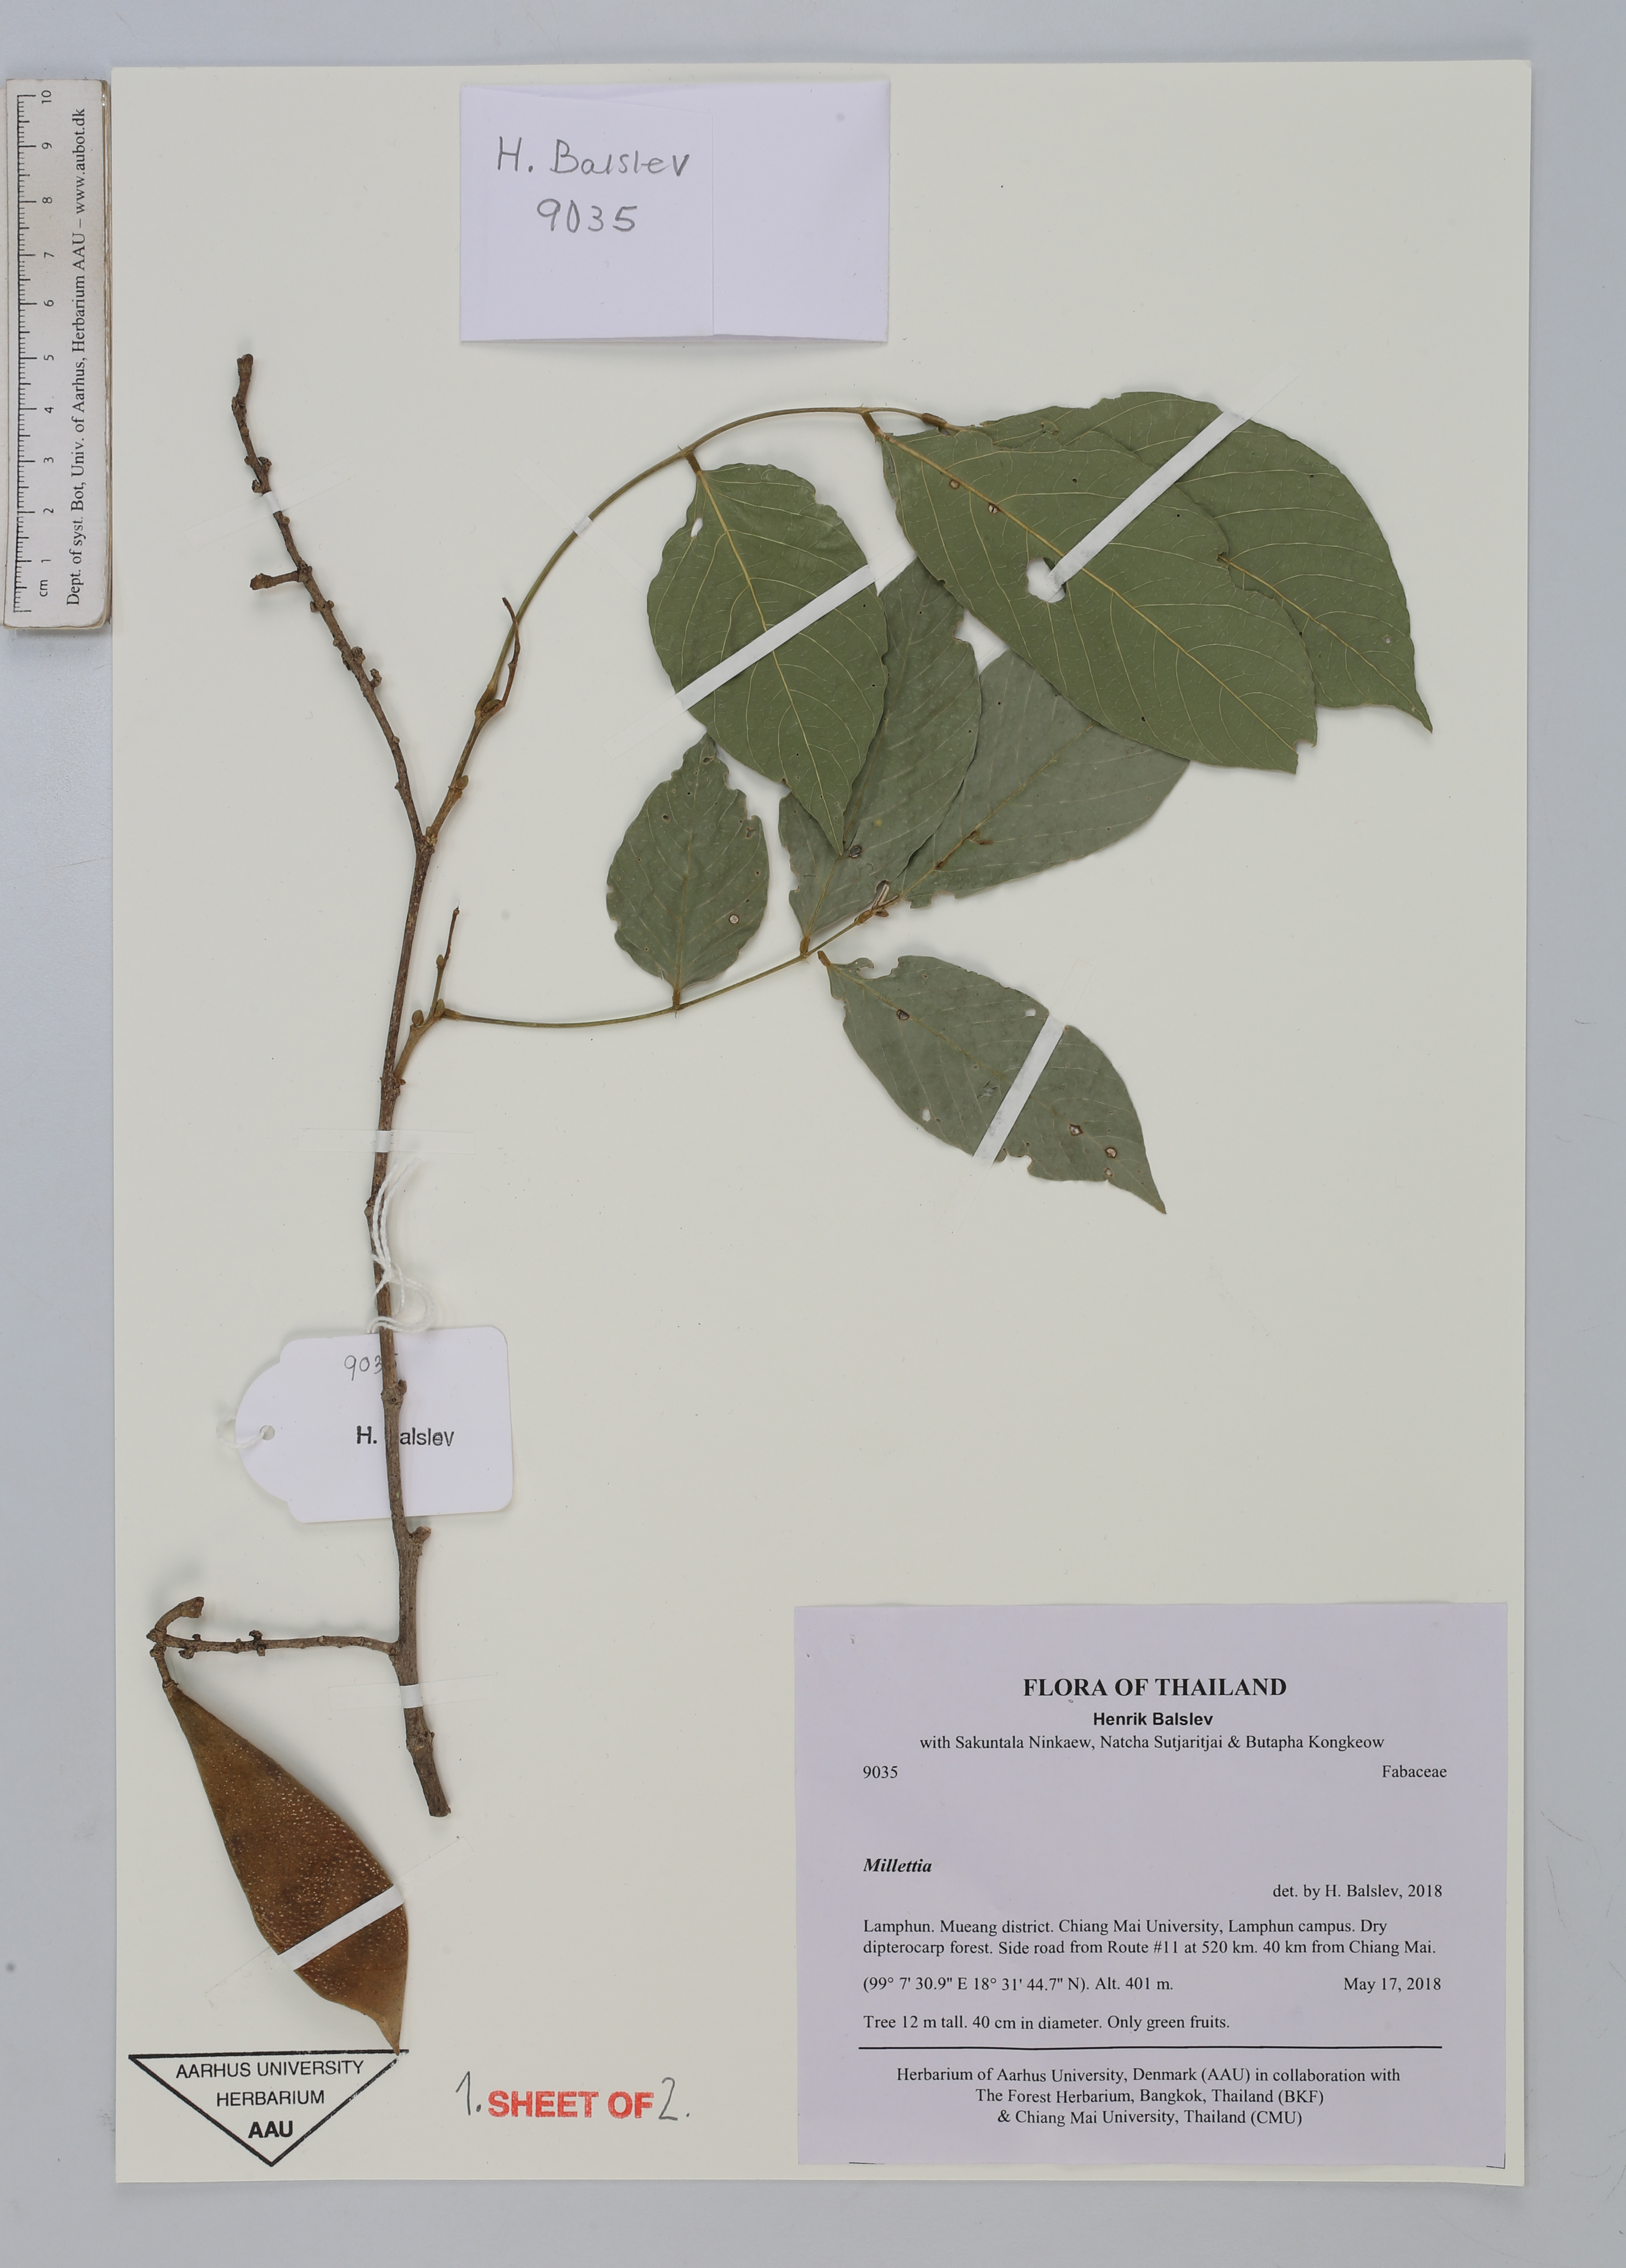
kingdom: Plantae
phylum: Tracheophyta
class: Magnoliopsida
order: Fabales
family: Fabaceae
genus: Imbralyx
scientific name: Imbralyx leucanthus
